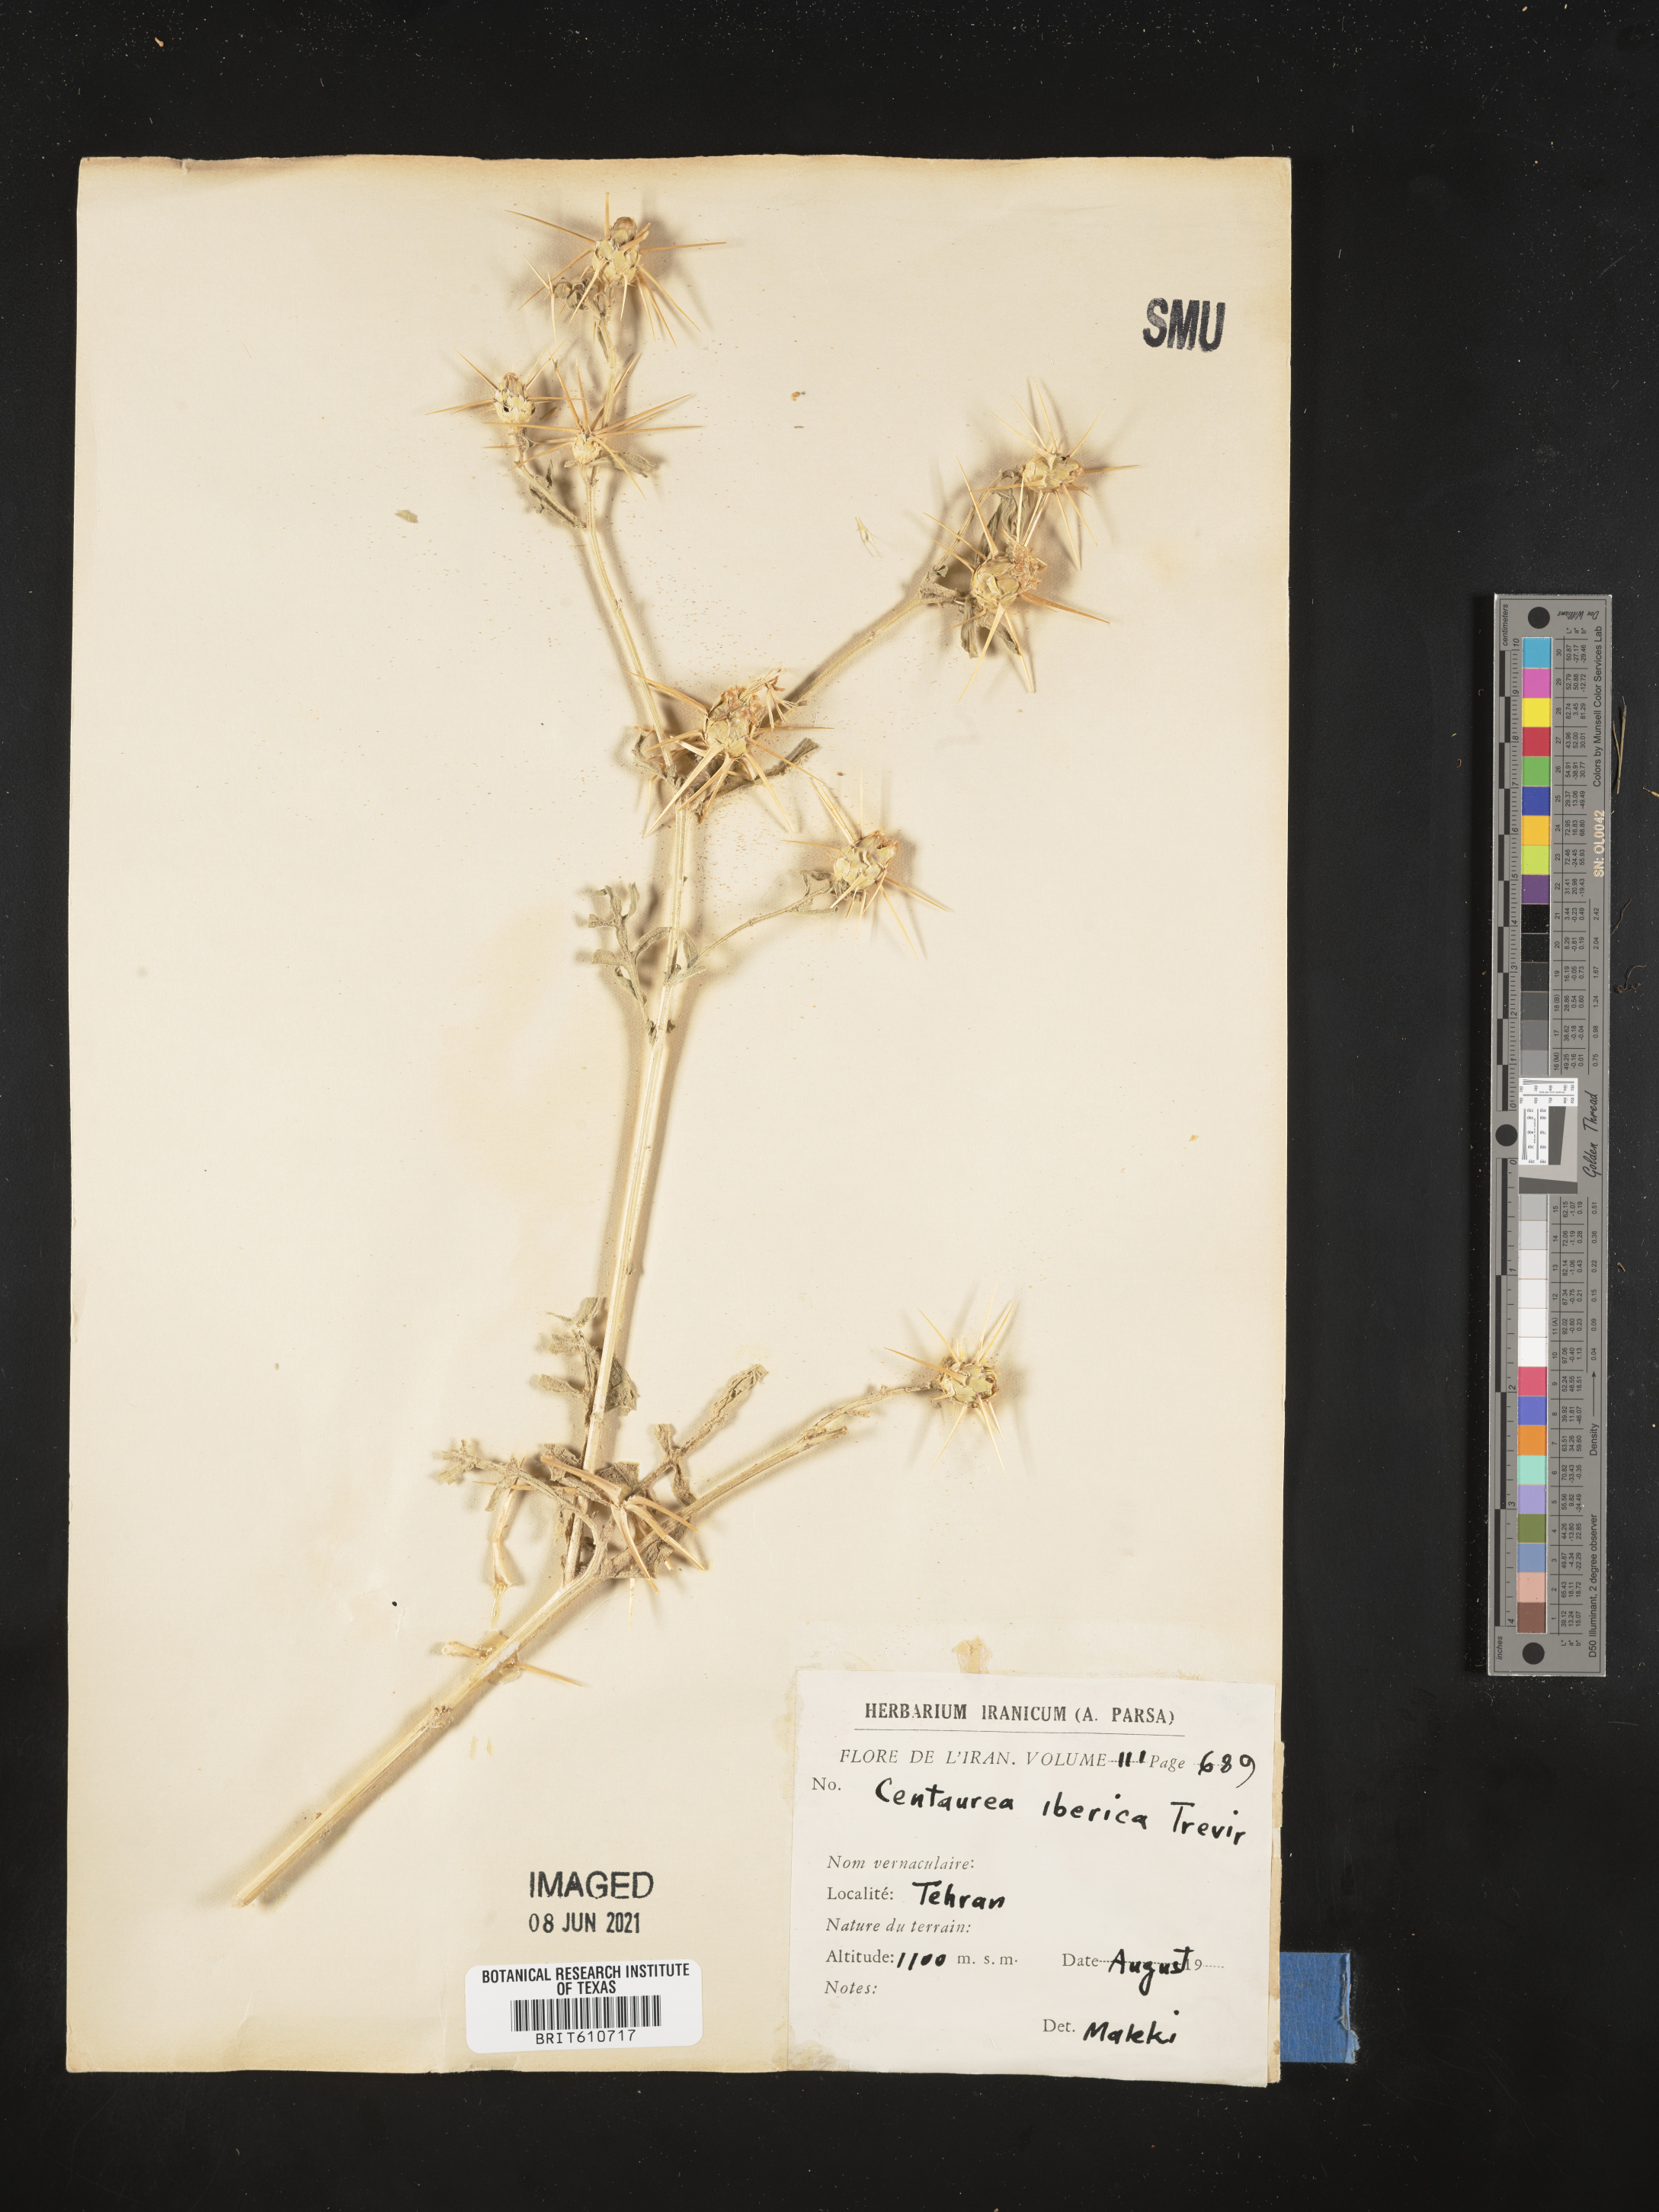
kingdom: Plantae
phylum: Tracheophyta
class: Magnoliopsida
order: Asterales
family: Asteraceae
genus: Centaurea
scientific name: Centaurea iberica
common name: Iberian knapweed
